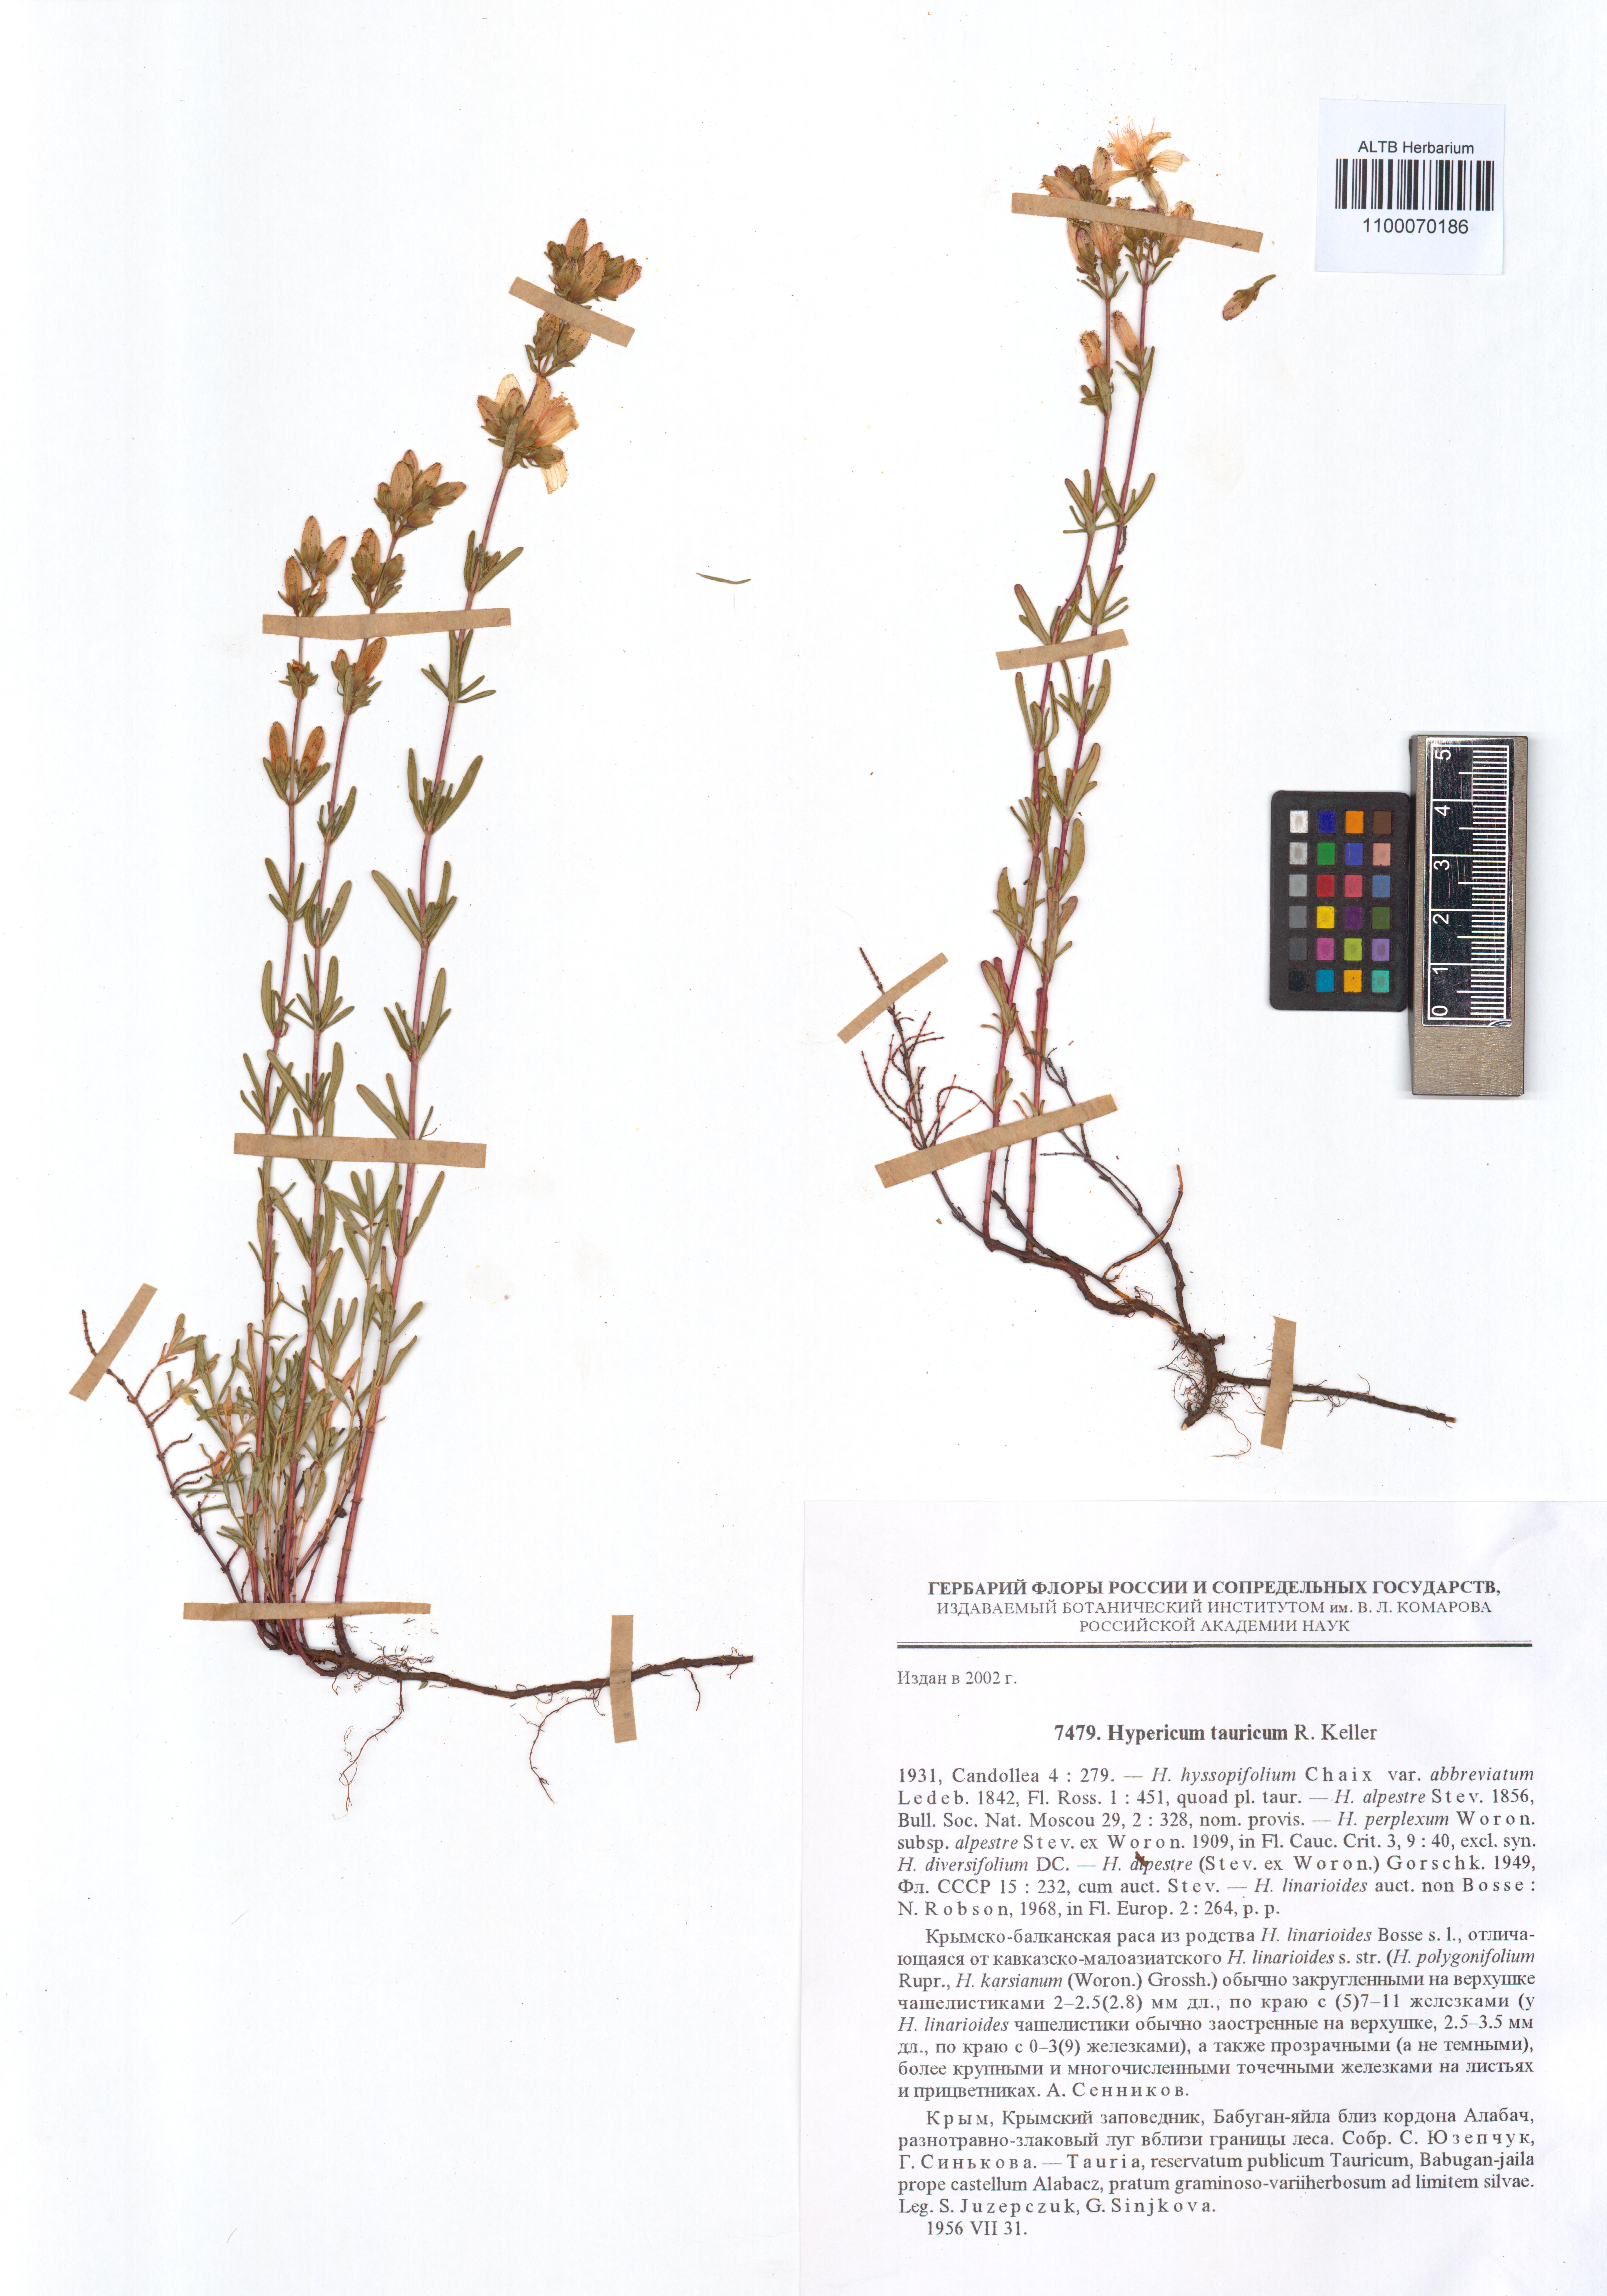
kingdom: Plantae
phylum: Tracheophyta
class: Magnoliopsida
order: Malpighiales
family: Hypericaceae
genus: Hypericum
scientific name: Hypericum linarioides
